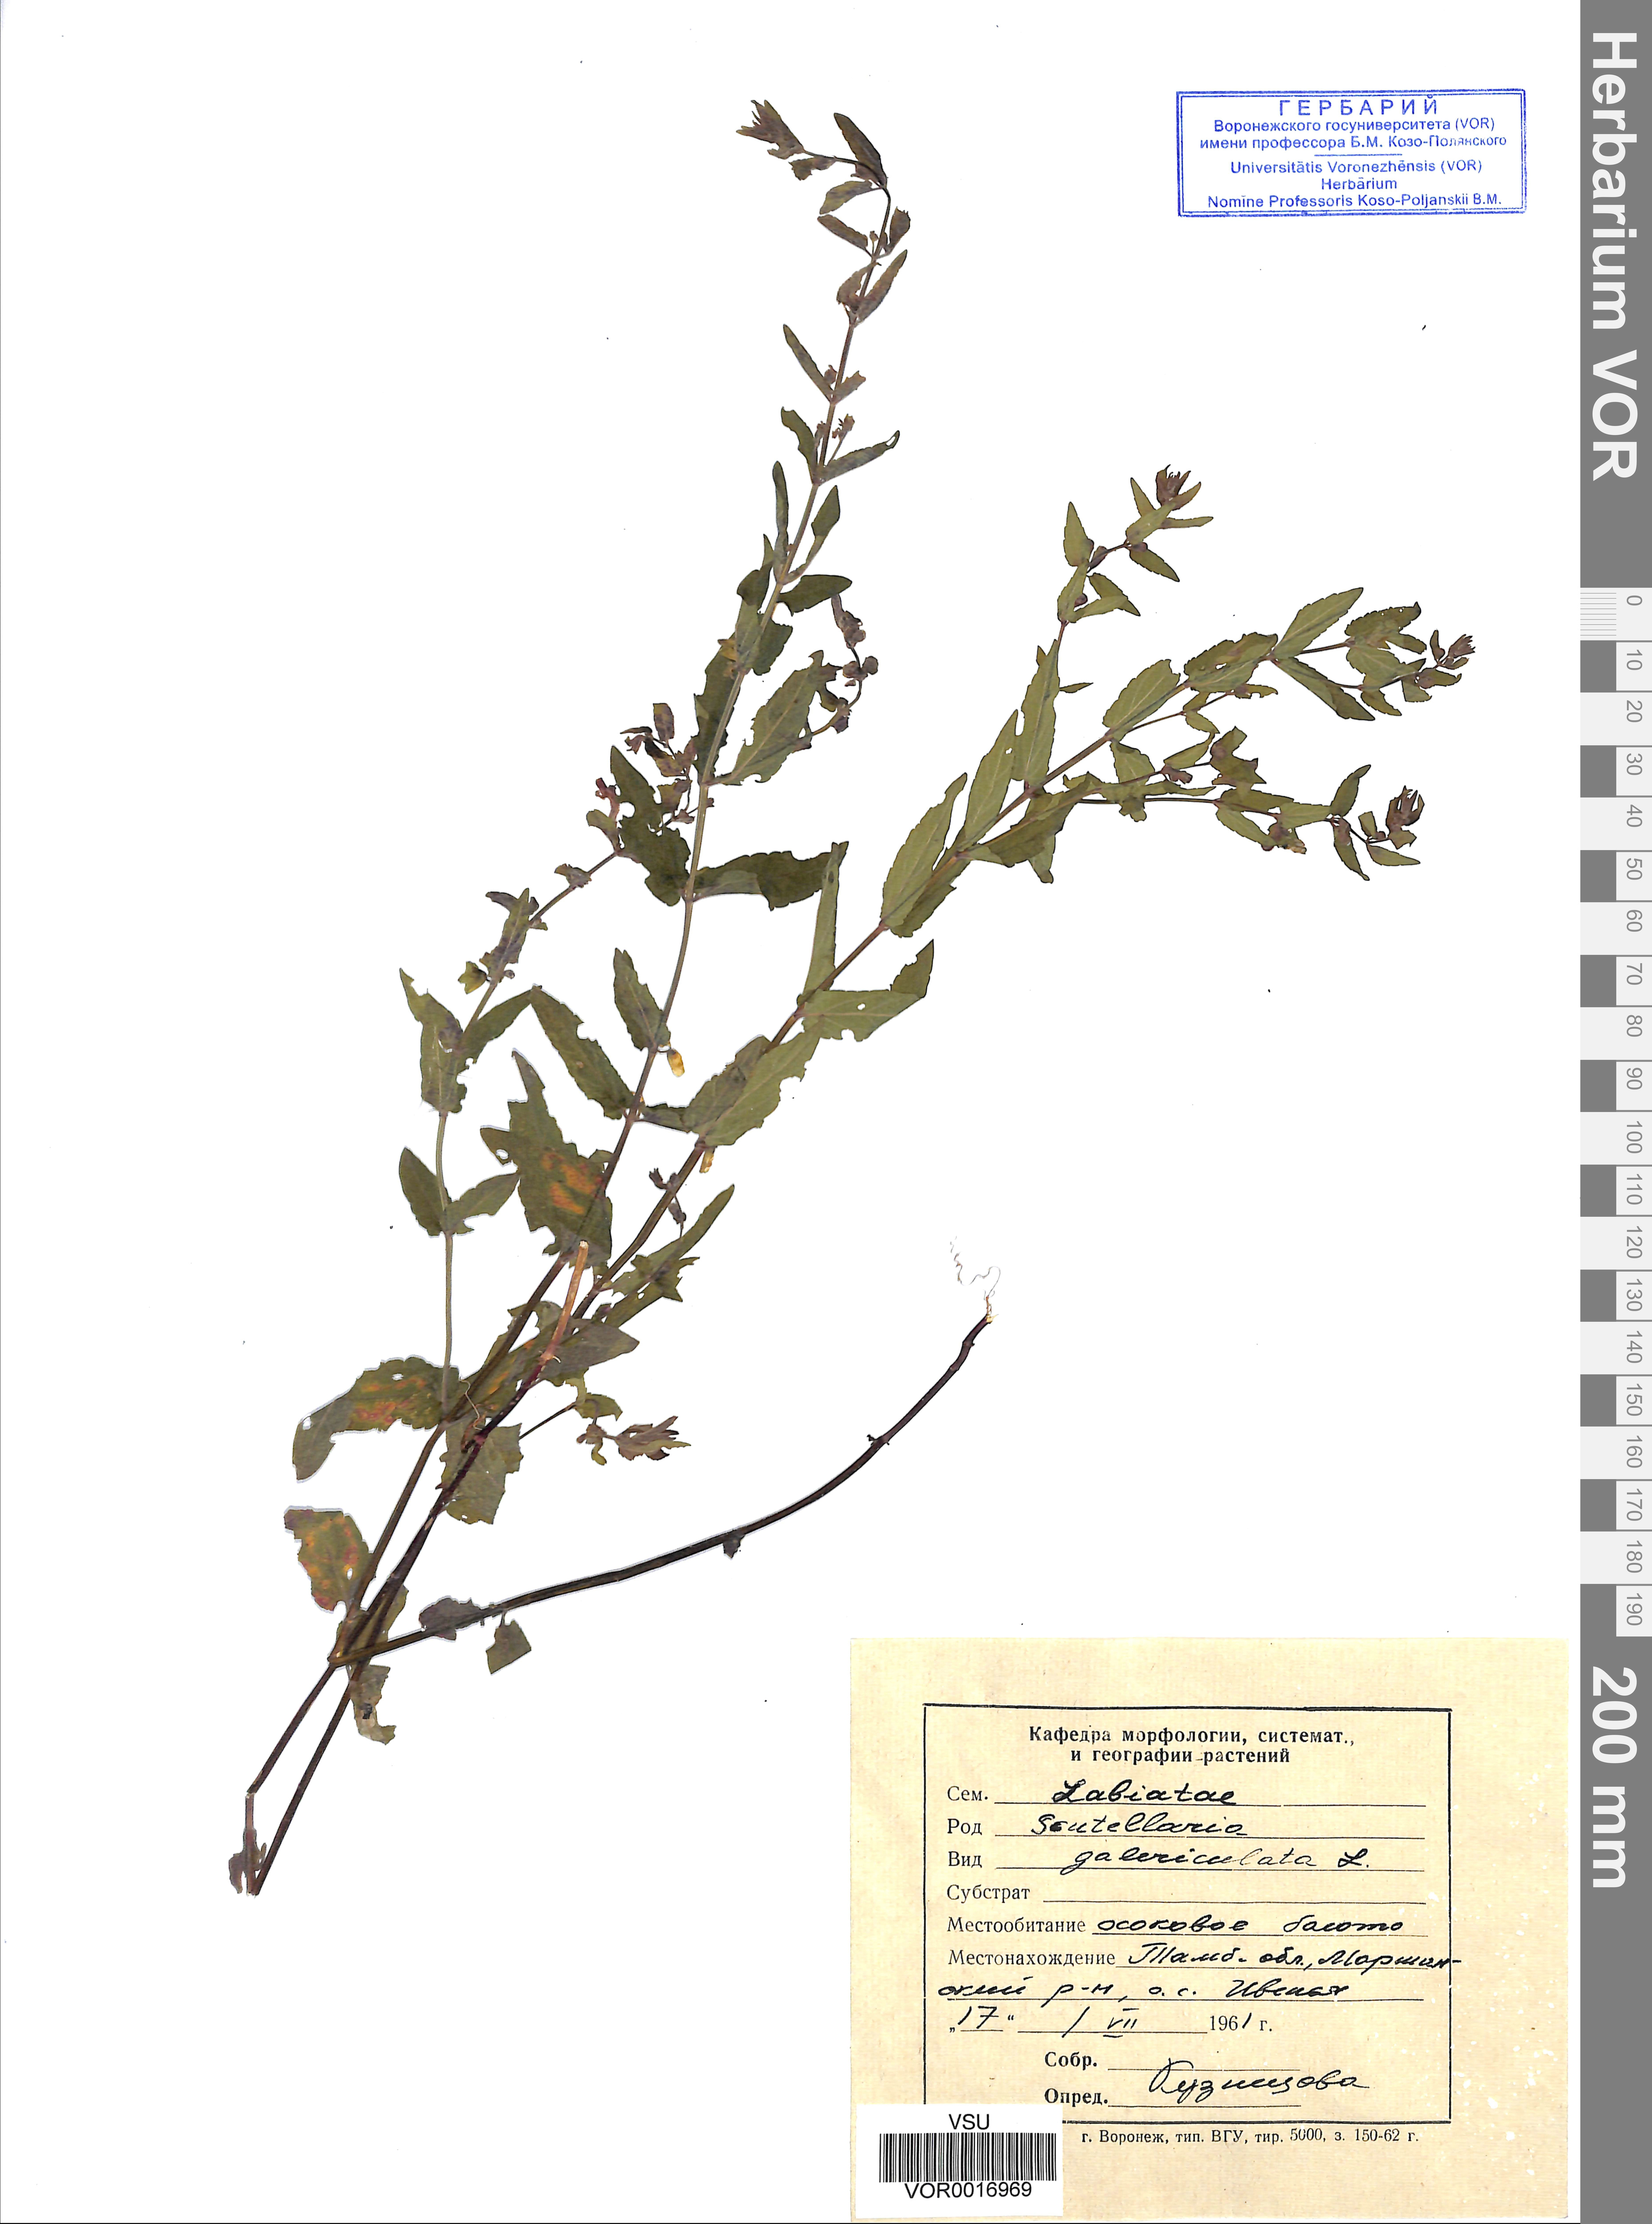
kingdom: Plantae
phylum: Tracheophyta
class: Magnoliopsida
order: Lamiales
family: Lamiaceae
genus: Scutellaria
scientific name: Scutellaria galericulata
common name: Skullcap
